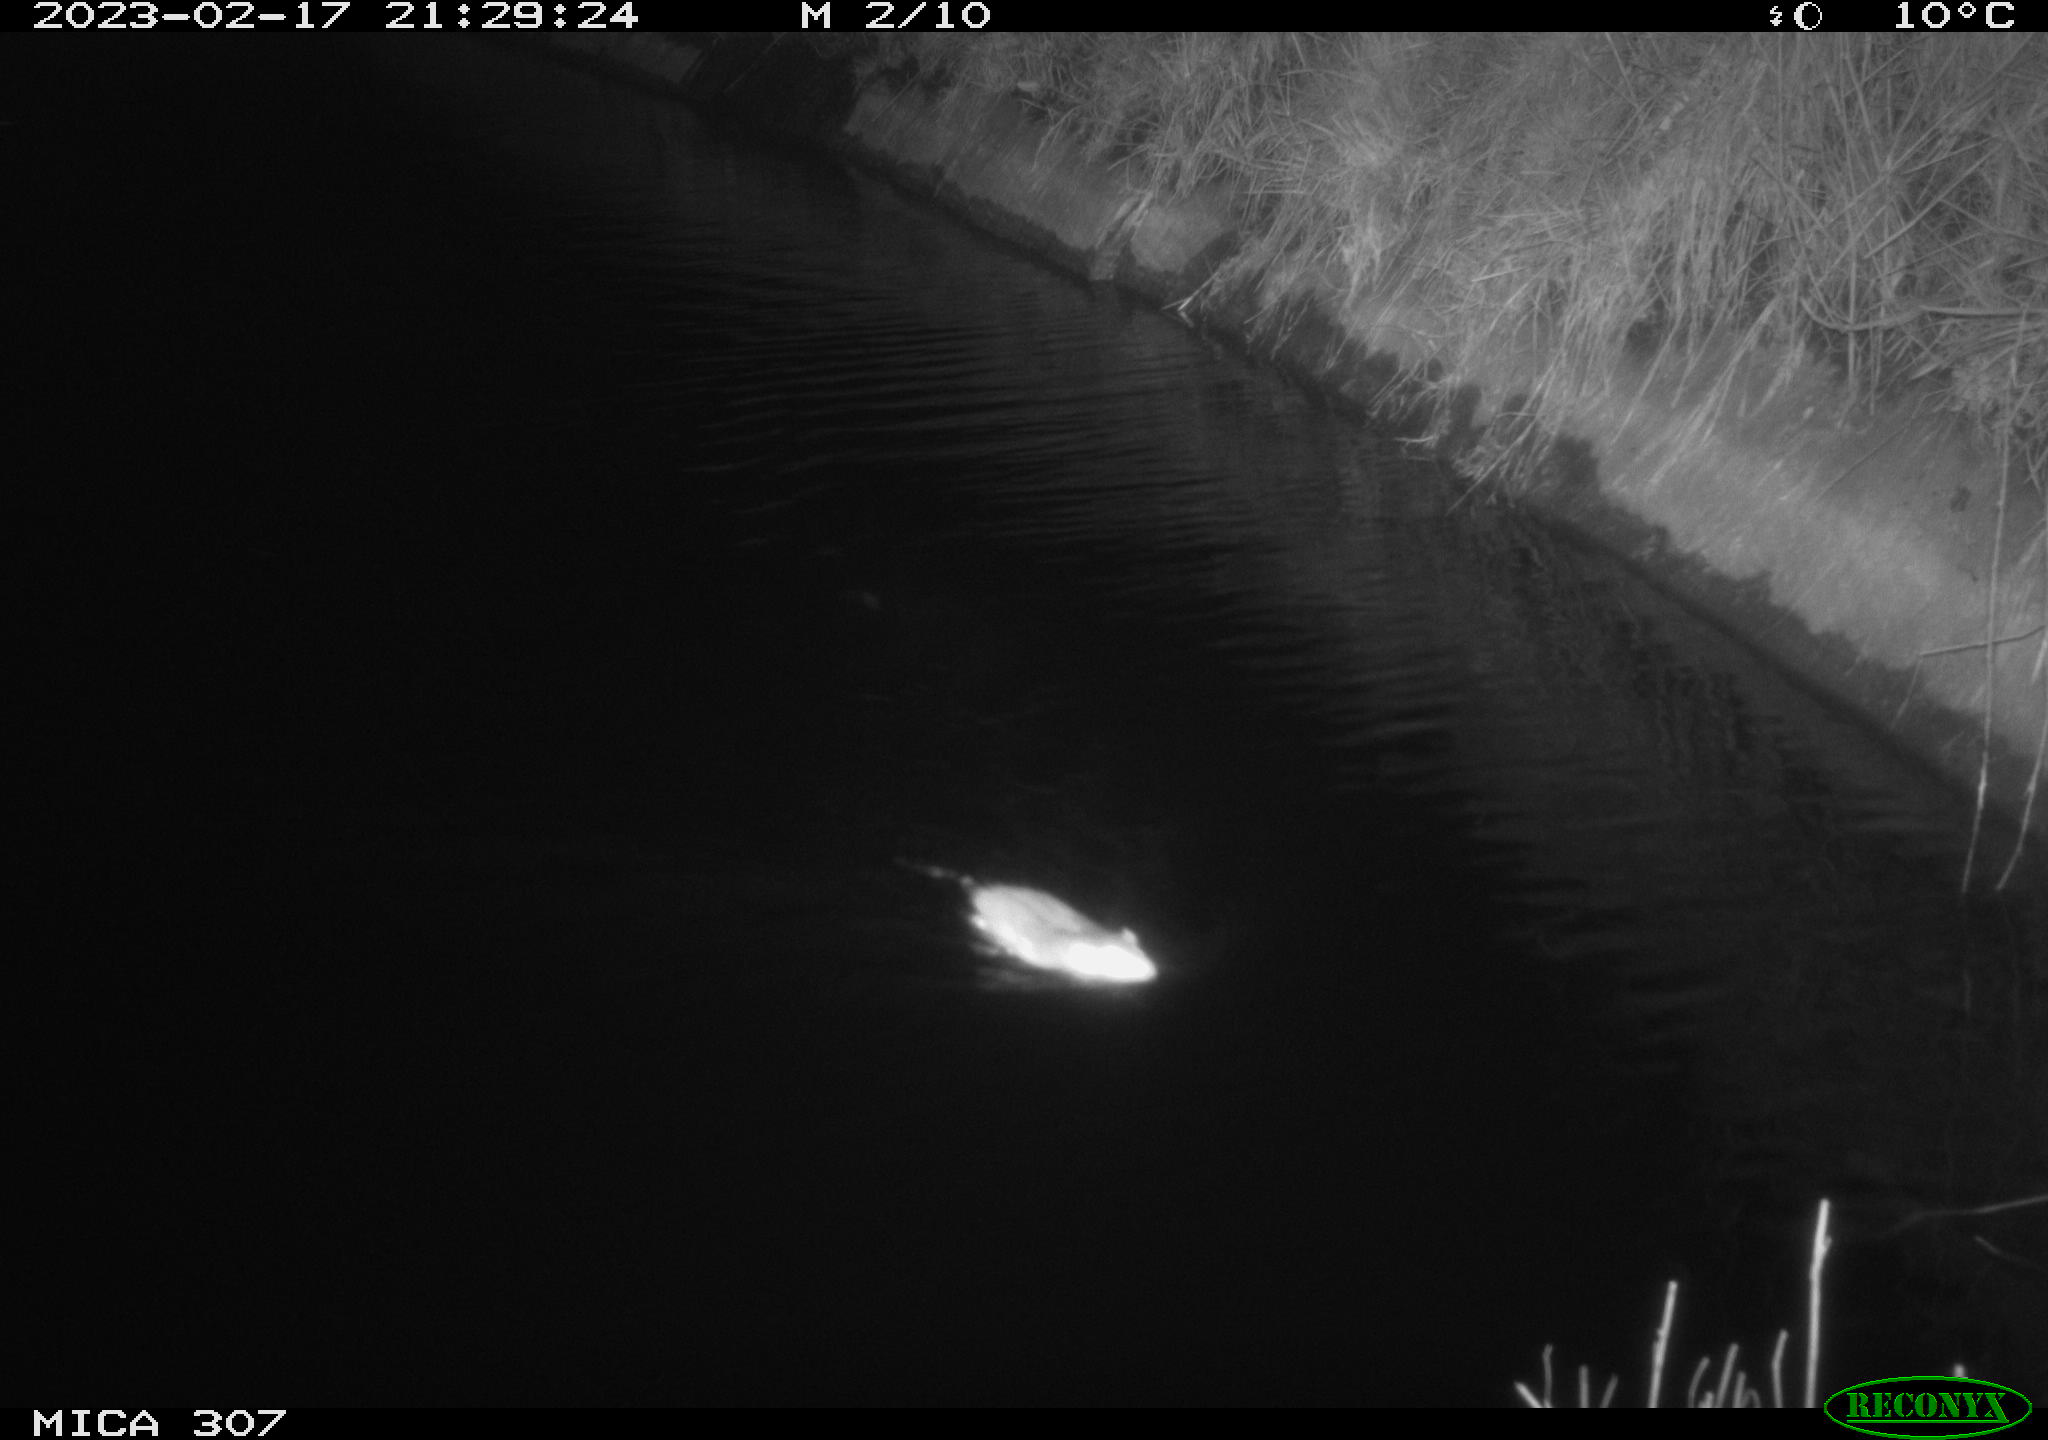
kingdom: Animalia
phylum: Chordata
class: Mammalia
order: Rodentia
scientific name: Rodentia
